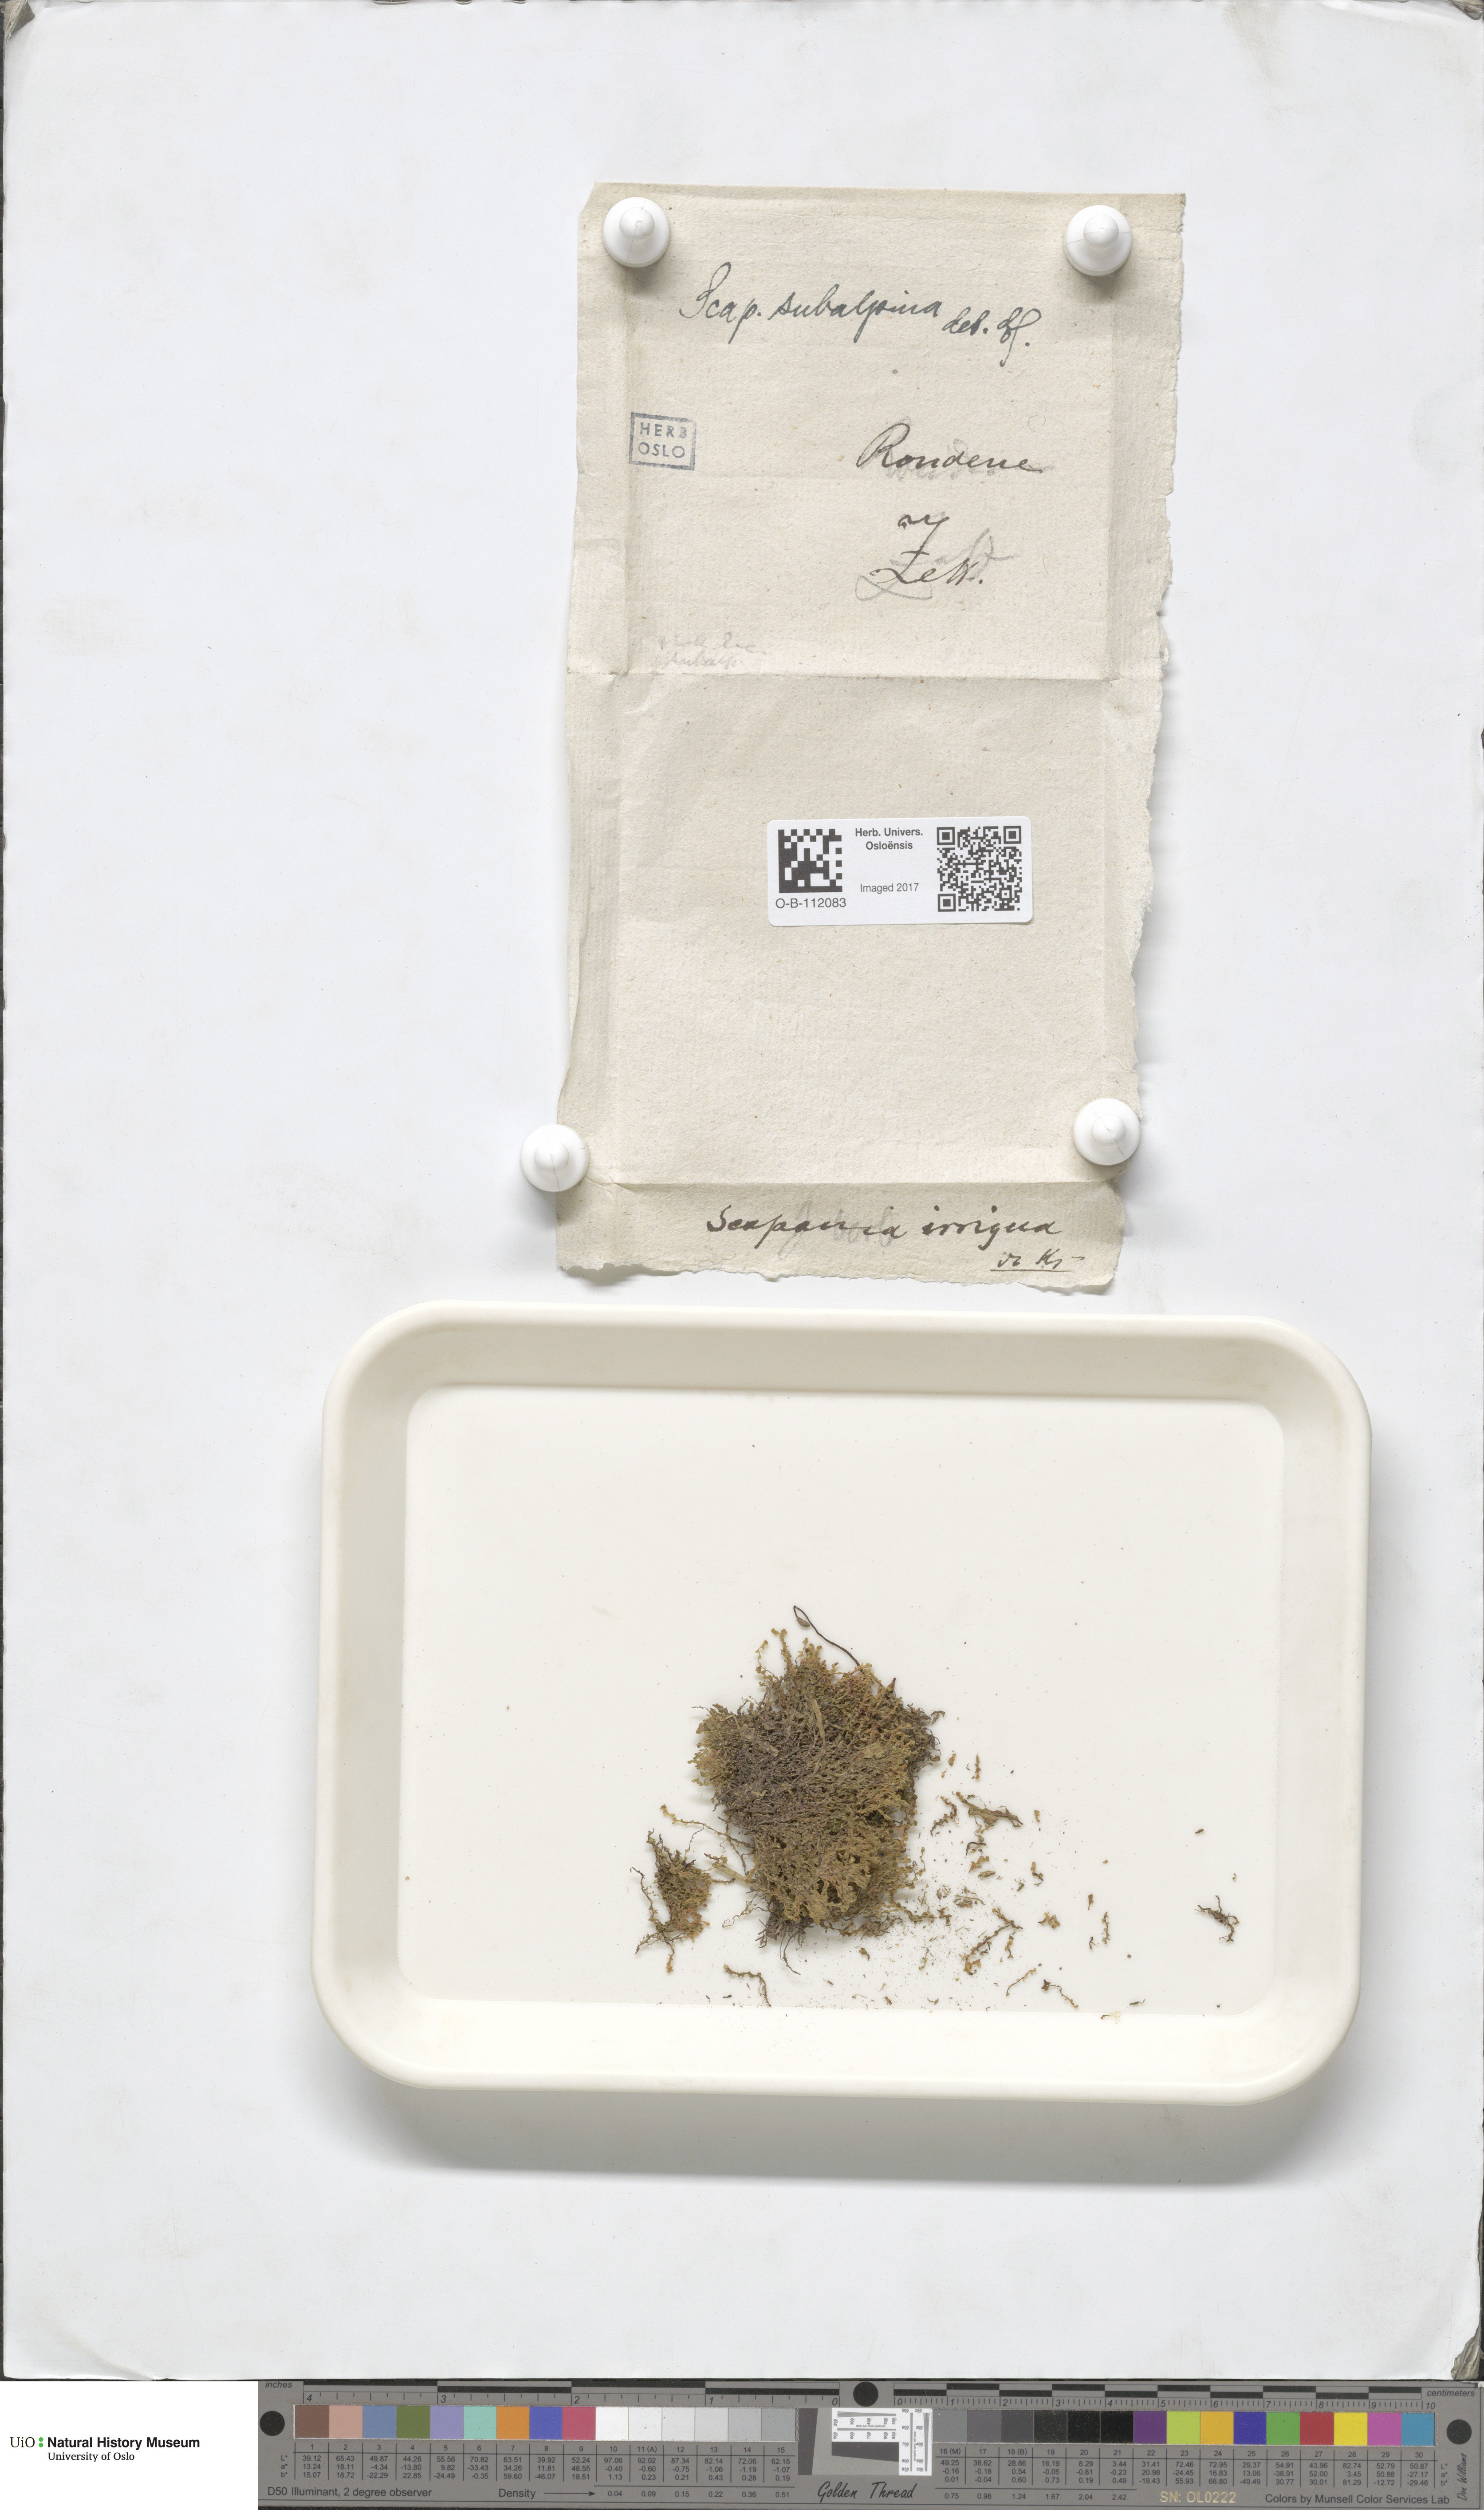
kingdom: Plantae
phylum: Marchantiophyta
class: Jungermanniopsida
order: Jungermanniales
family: Scapaniaceae
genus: Scapania
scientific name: Scapania subalpina
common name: Subalpine earwort
